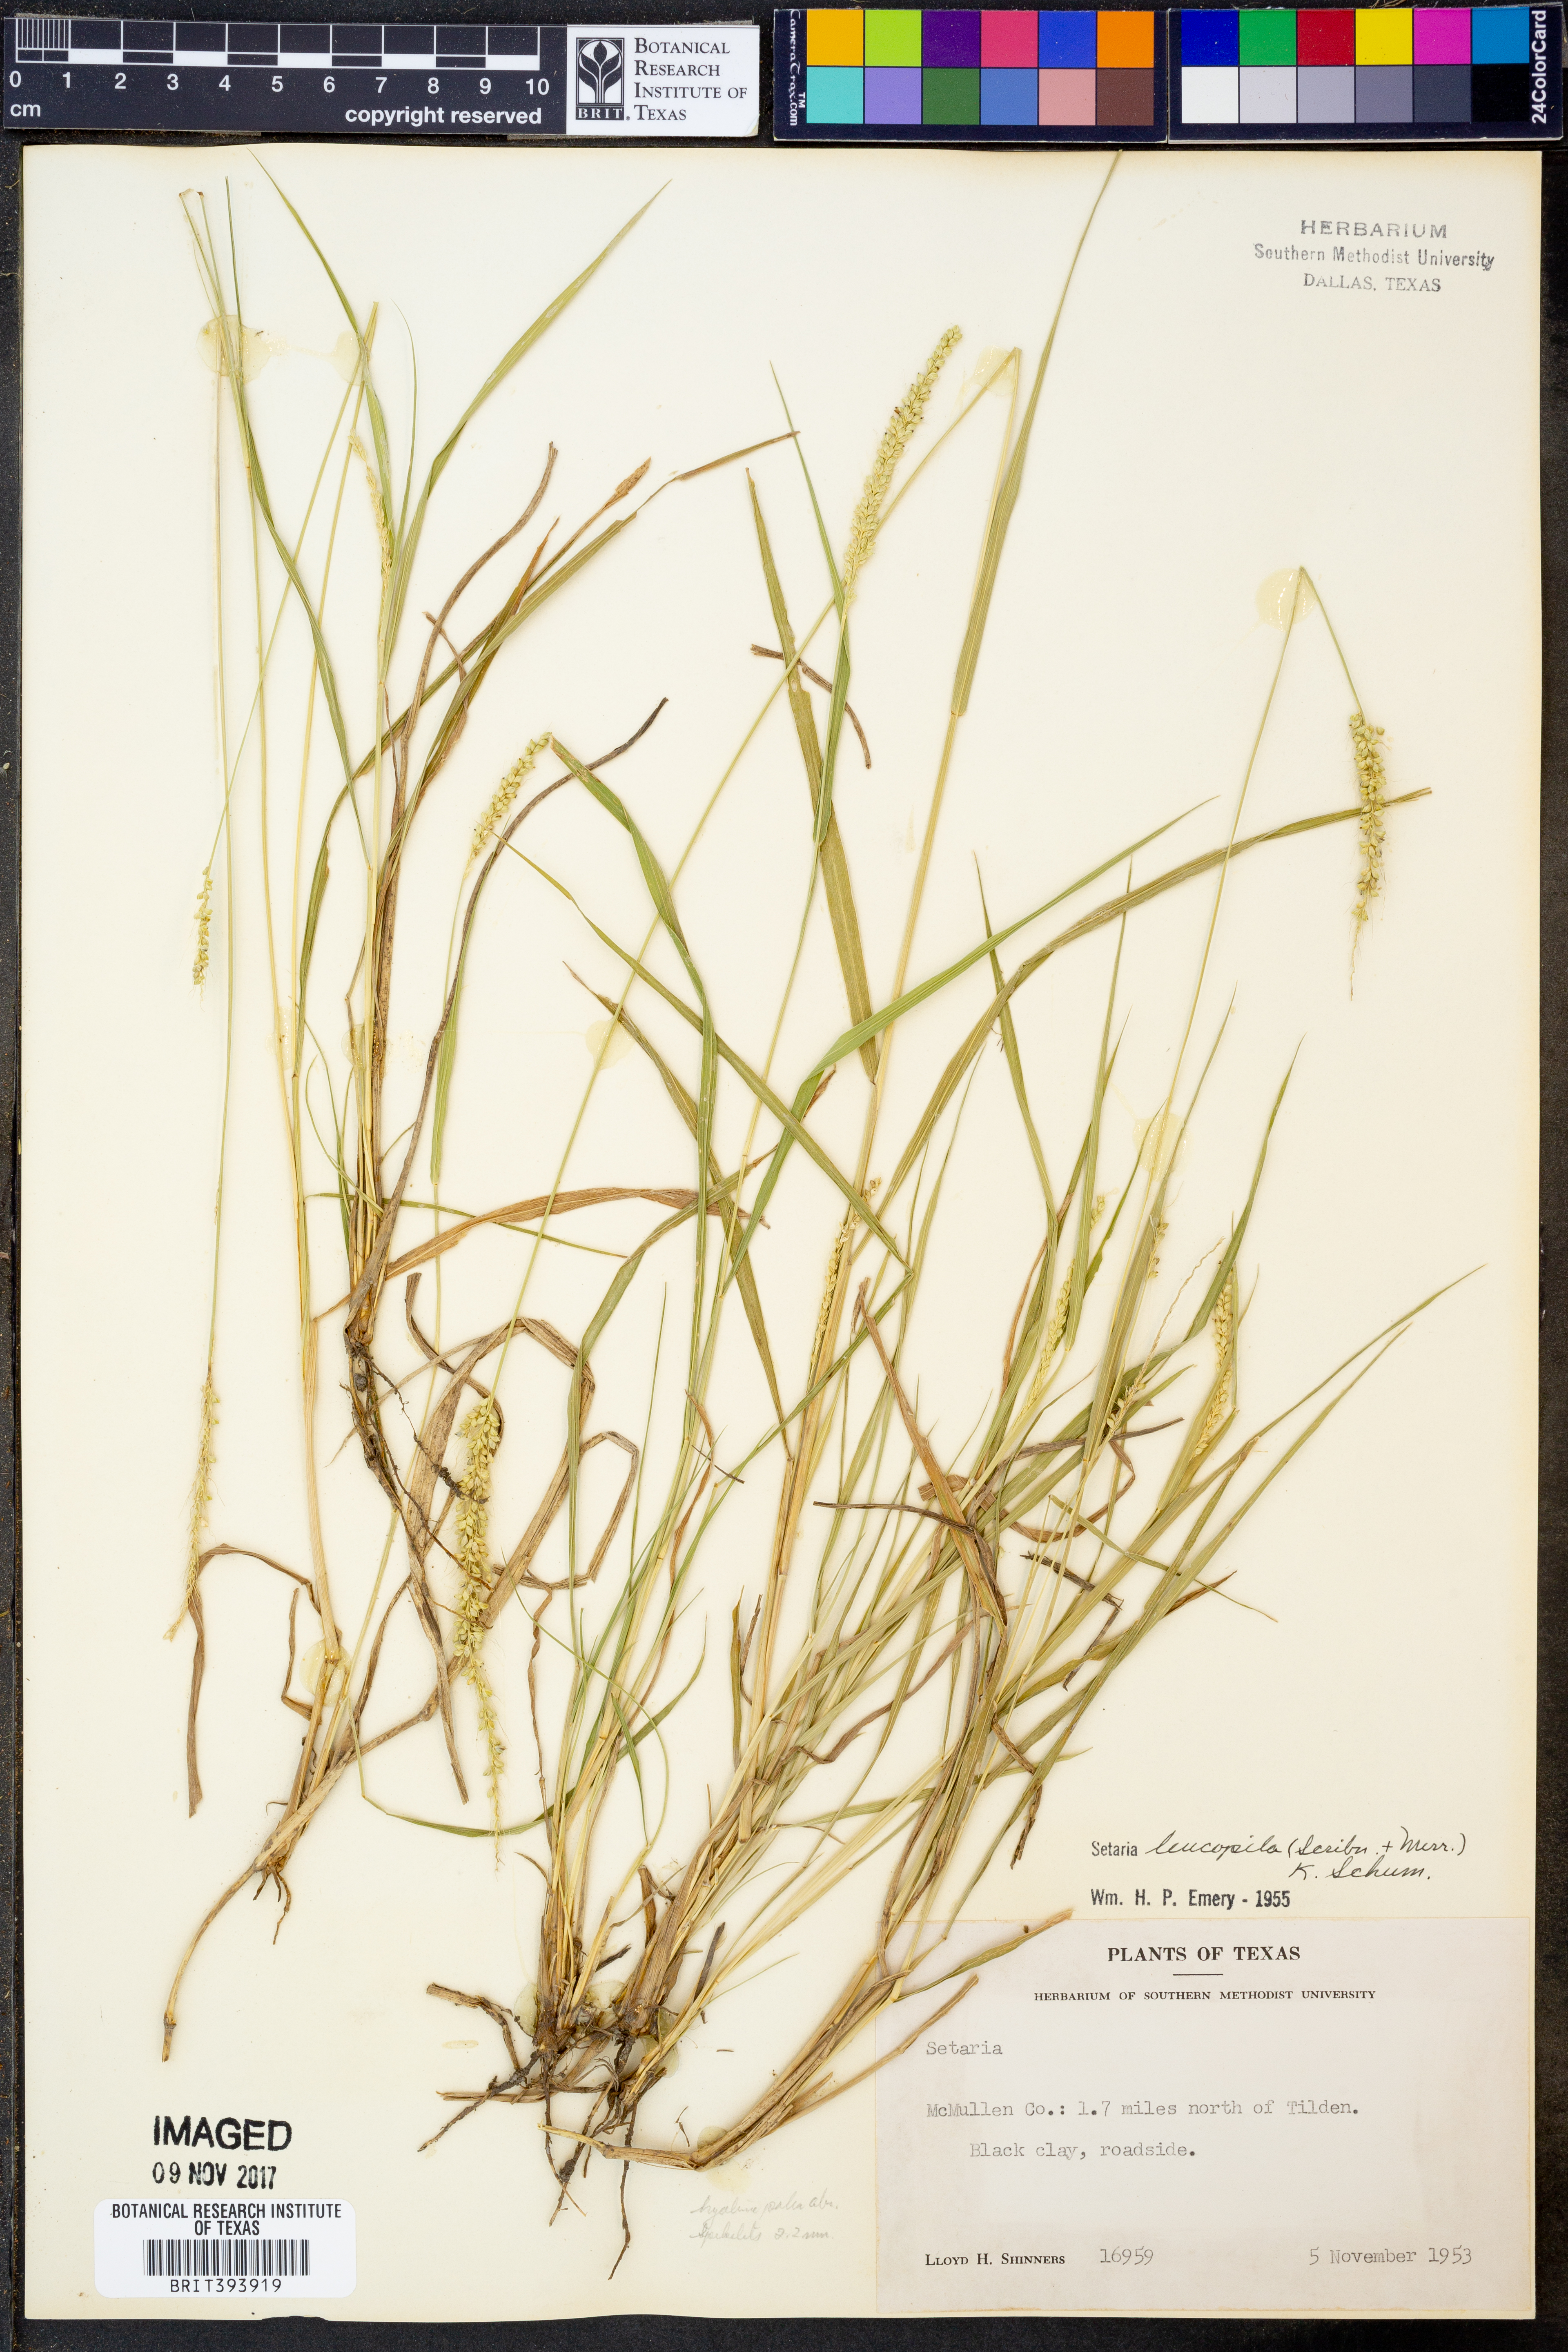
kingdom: Plantae
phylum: Tracheophyta
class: Liliopsida
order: Poales
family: Poaceae
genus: Setaria
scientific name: Setaria leucopila
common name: Plains bristle grass
